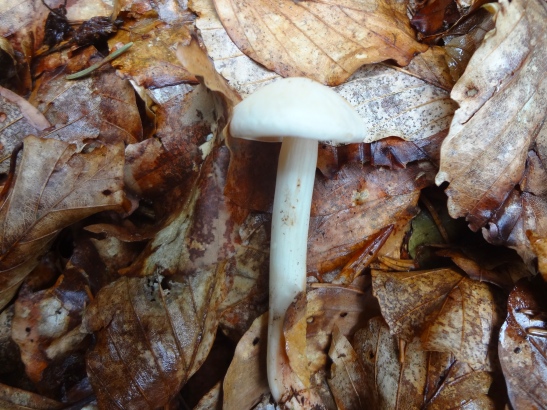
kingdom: Fungi
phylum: Basidiomycota
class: Agaricomycetes
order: Agaricales
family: Omphalotaceae
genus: Rhodocollybia
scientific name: Rhodocollybia maculata
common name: plettet fladhat
